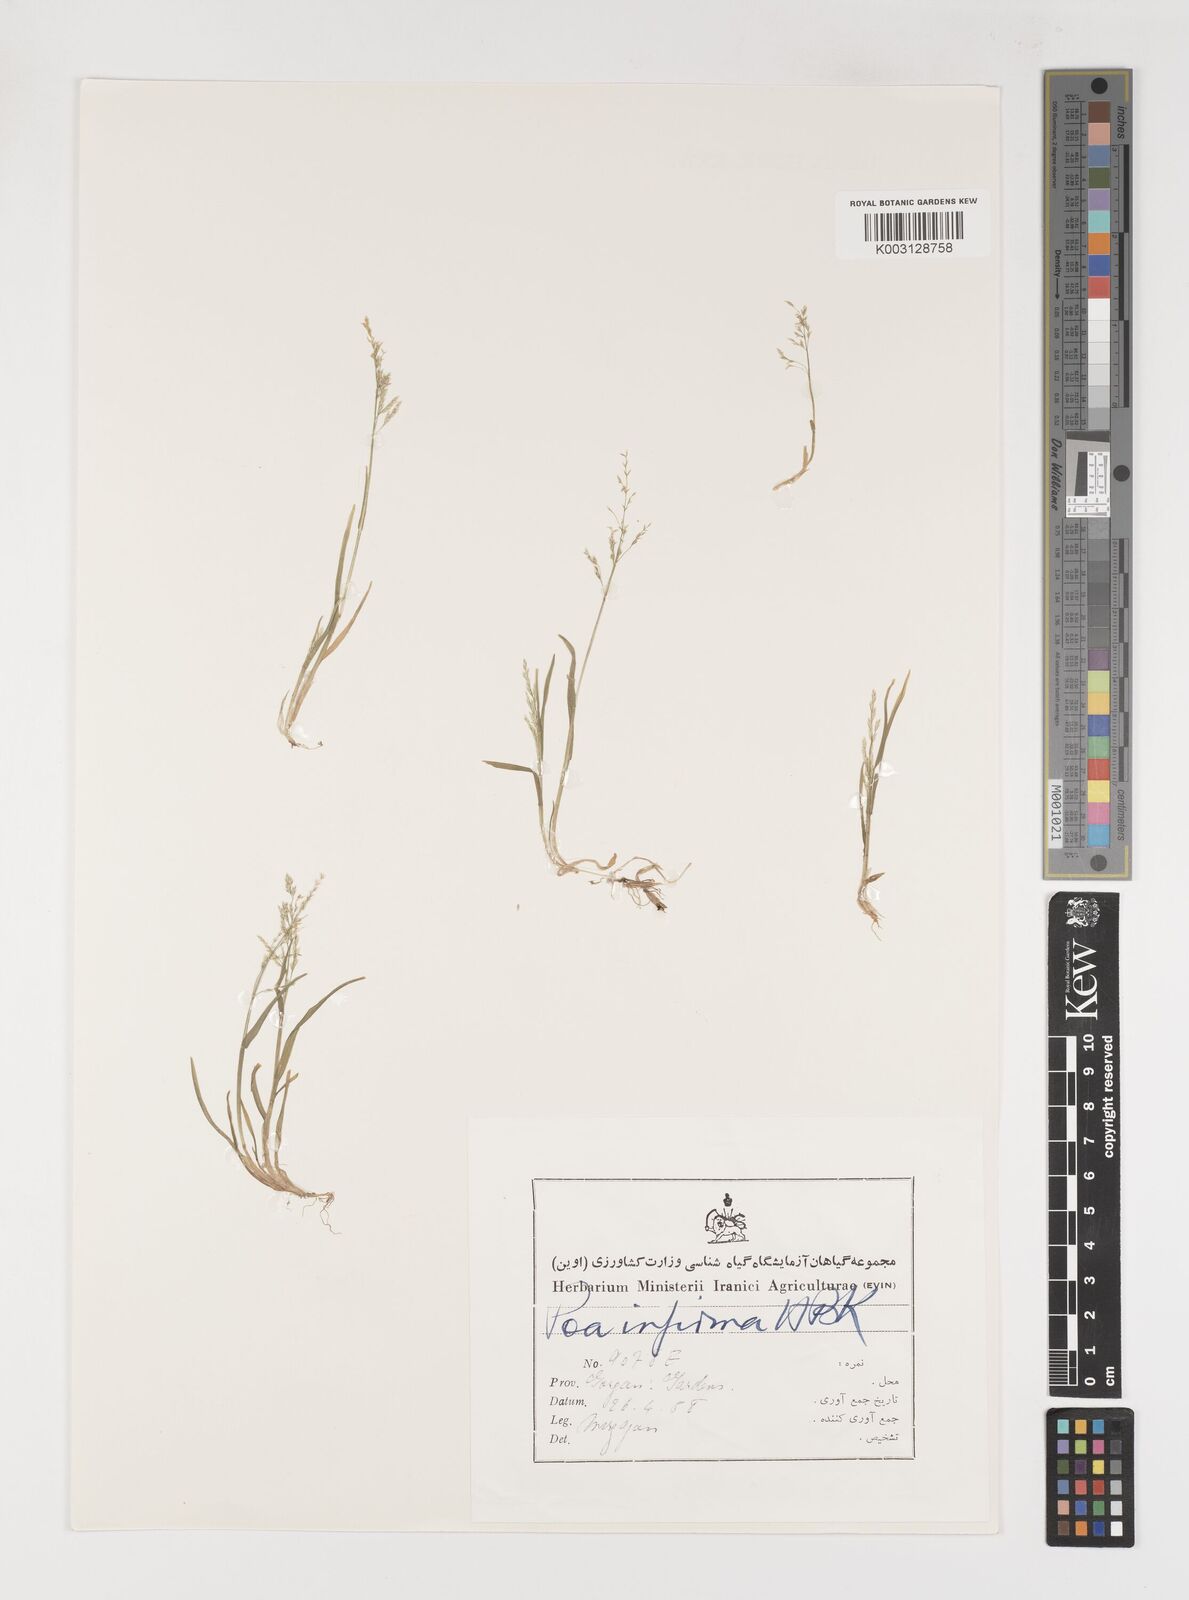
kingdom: Plantae
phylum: Tracheophyta
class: Liliopsida
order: Poales
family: Poaceae
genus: Poa
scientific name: Poa infirma
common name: Weak bluegrass
